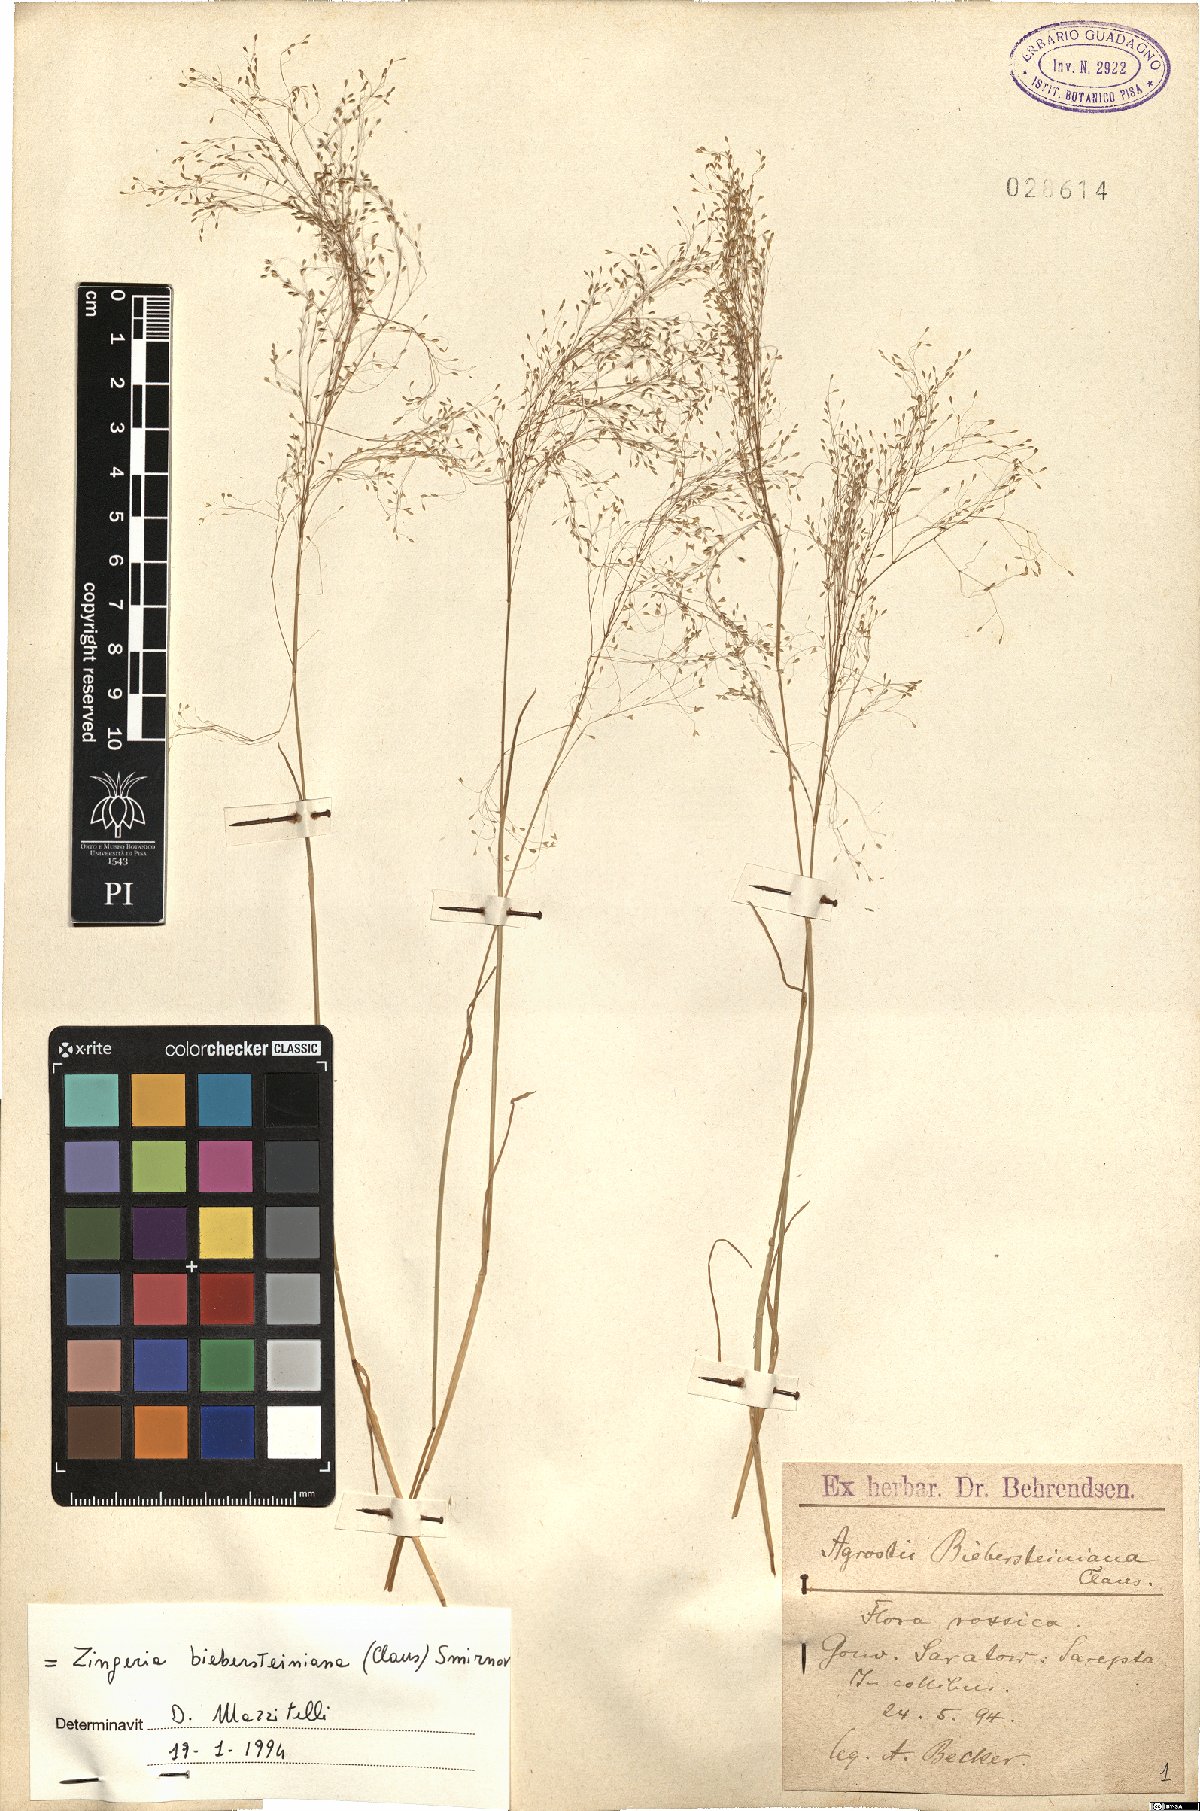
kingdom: Plantae
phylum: Tracheophyta
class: Liliopsida
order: Poales
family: Poaceae
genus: Colpodium
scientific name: Colpodium biebersteinianum
